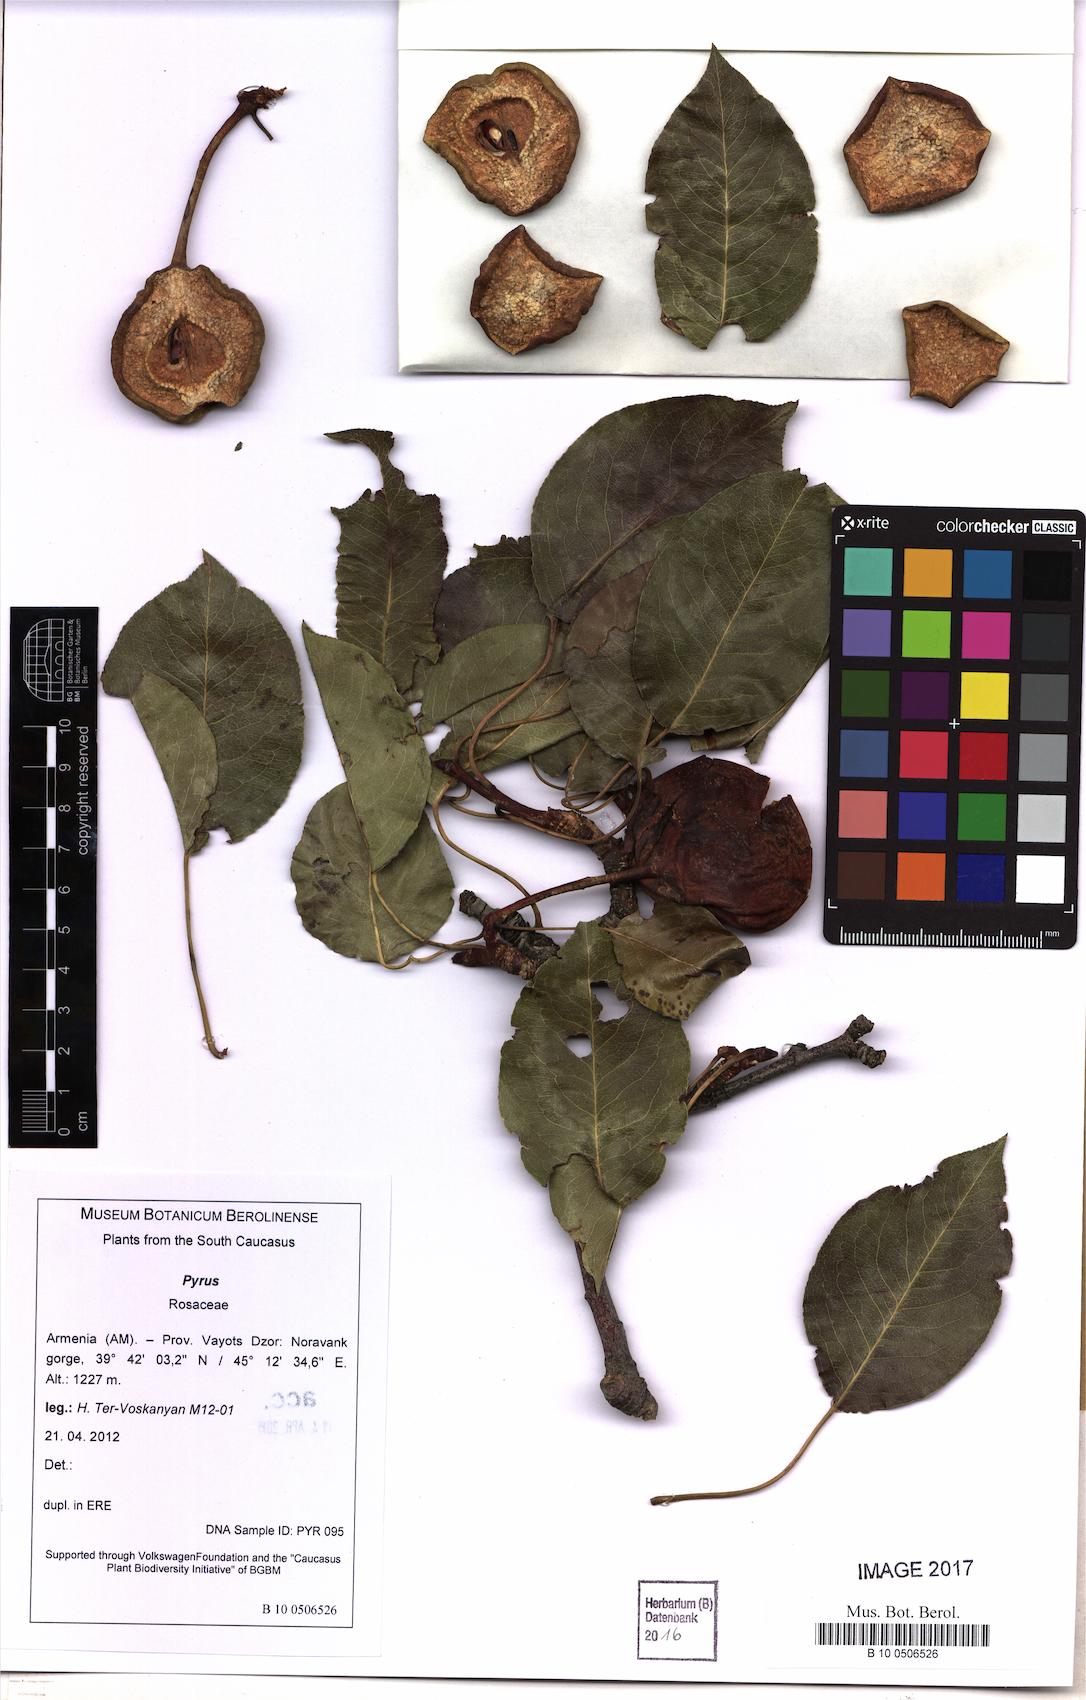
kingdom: Plantae
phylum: Tracheophyta
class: Magnoliopsida
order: Rosales
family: Rosaceae
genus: Pyrus
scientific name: Pyrus
